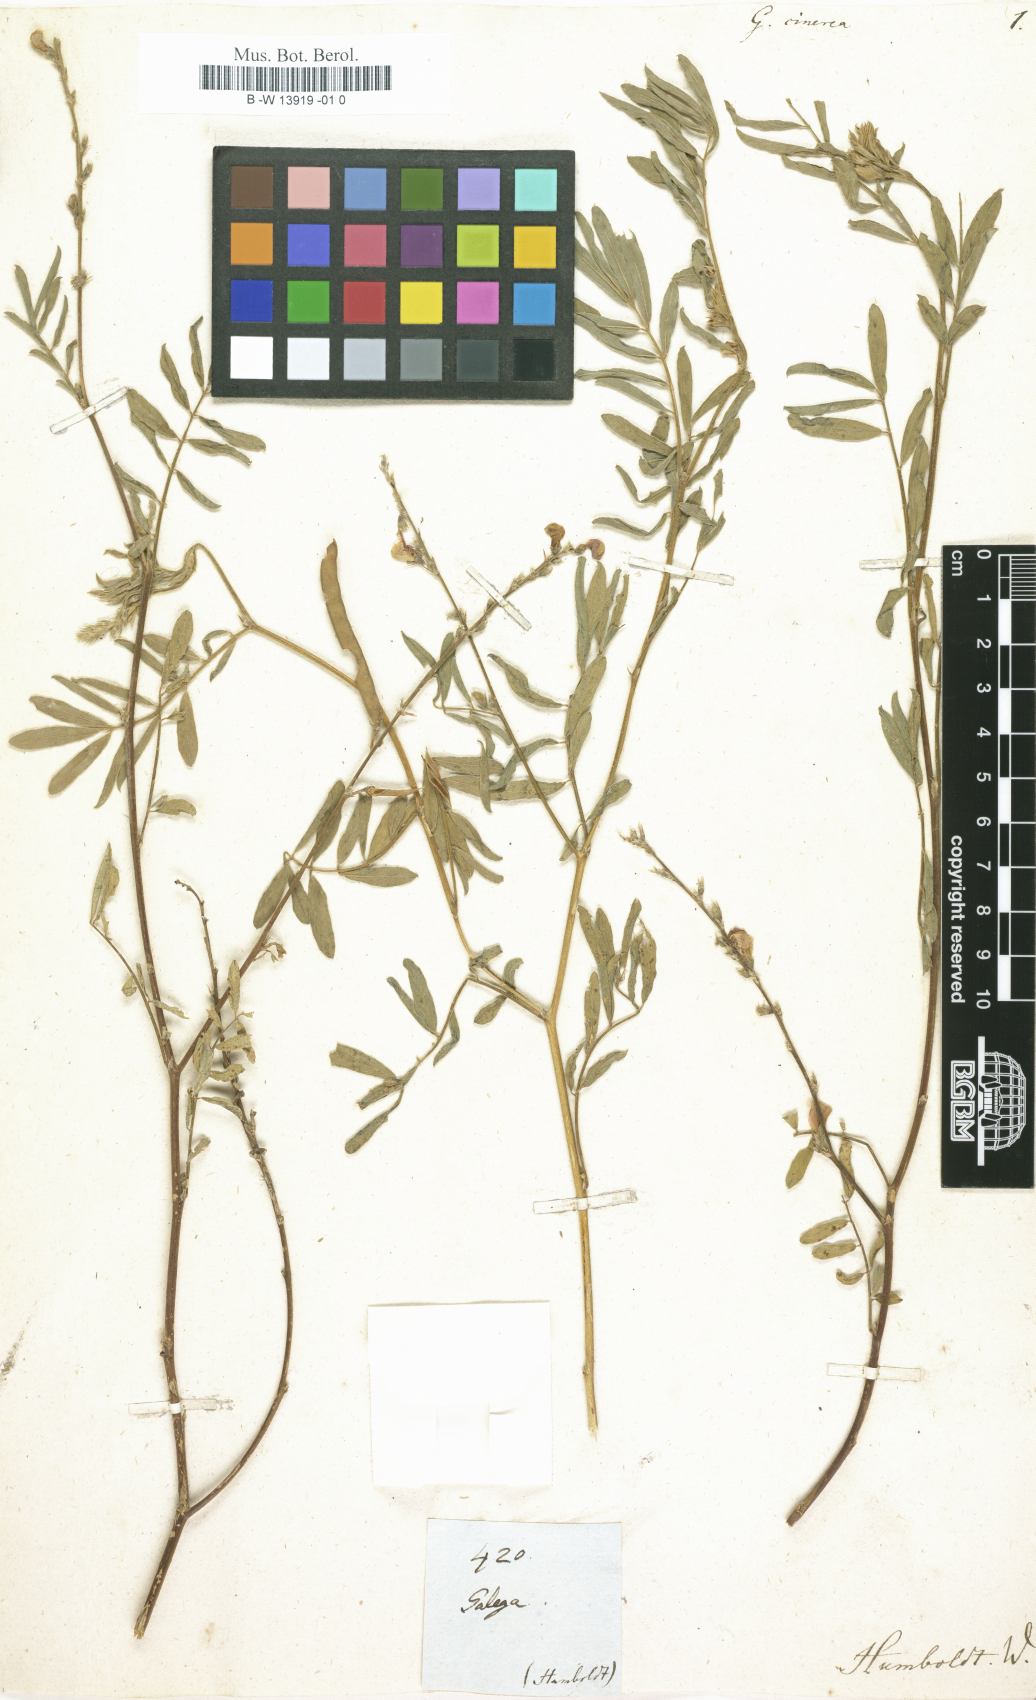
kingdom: Plantae
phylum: Tracheophyta
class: Magnoliopsida
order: Fabales
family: Fabaceae
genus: Tephrosia
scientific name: Tephrosia cinerea
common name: Ashen hoarypea
